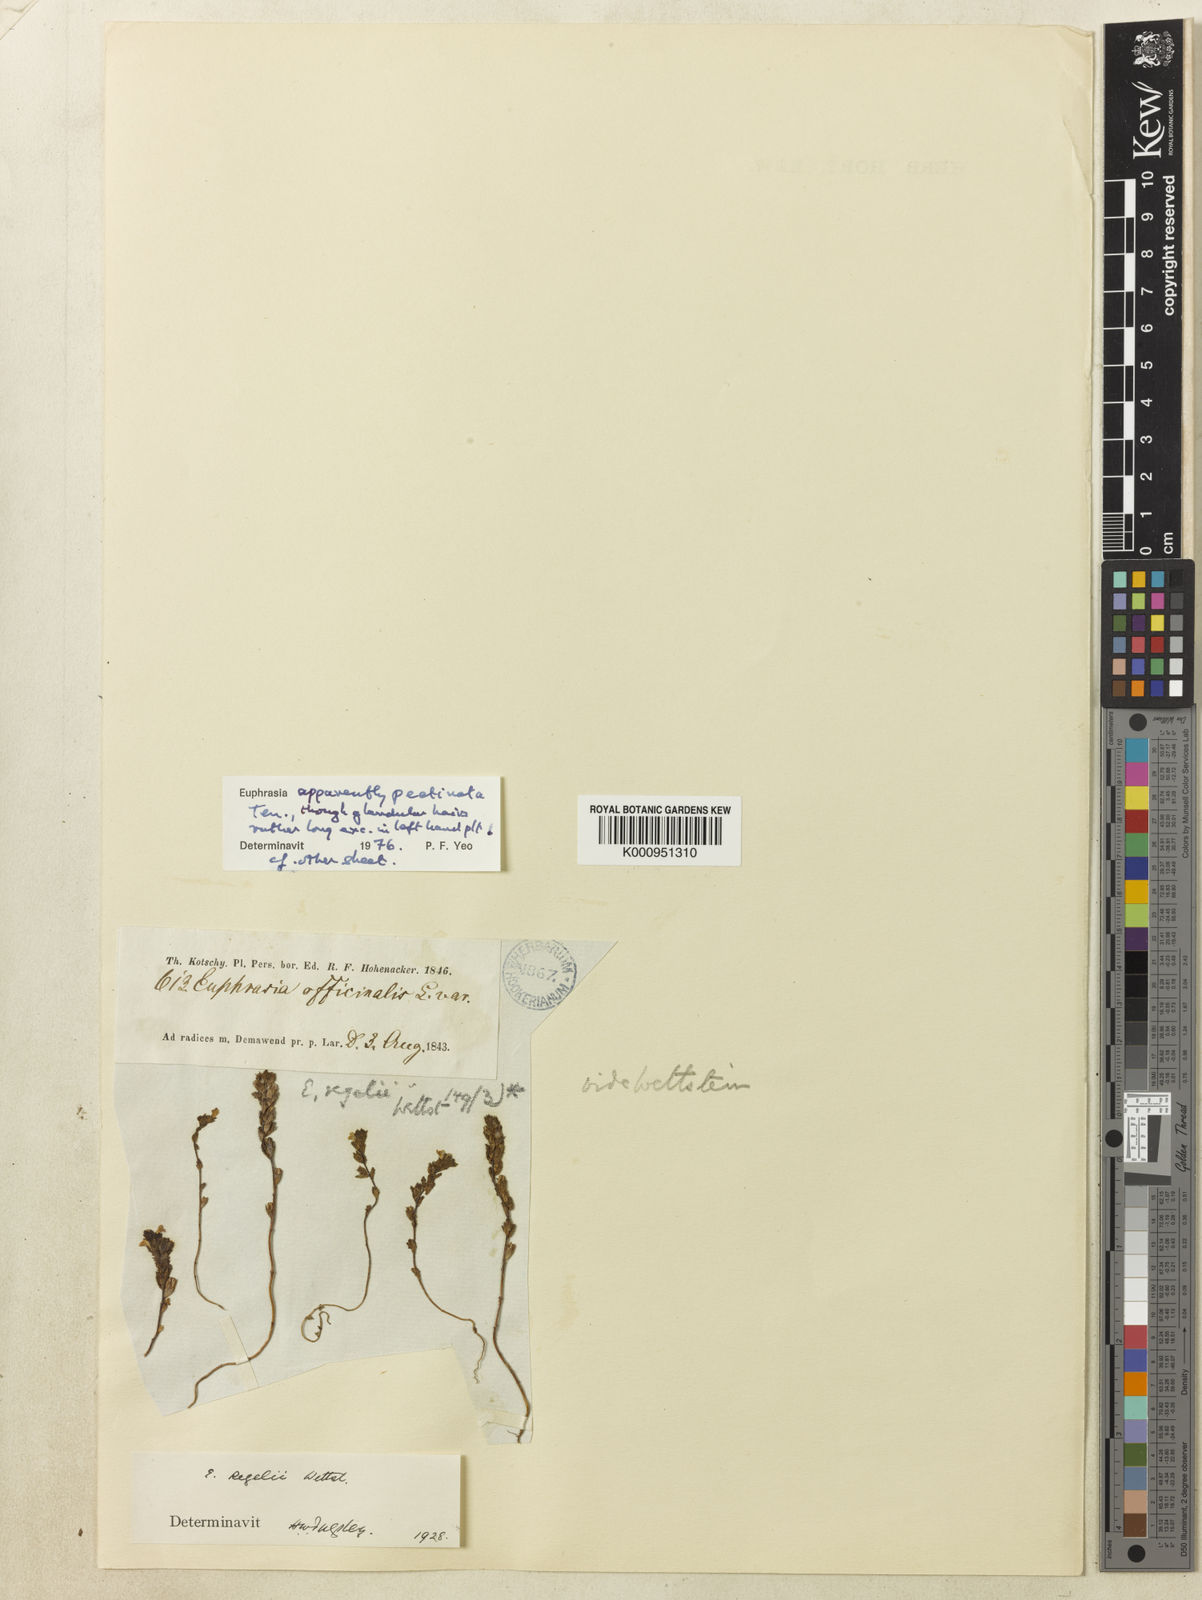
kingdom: Plantae
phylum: Tracheophyta
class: Magnoliopsida
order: Lamiales
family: Orobanchaceae
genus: Euphrasia
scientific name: Euphrasia pectinata
